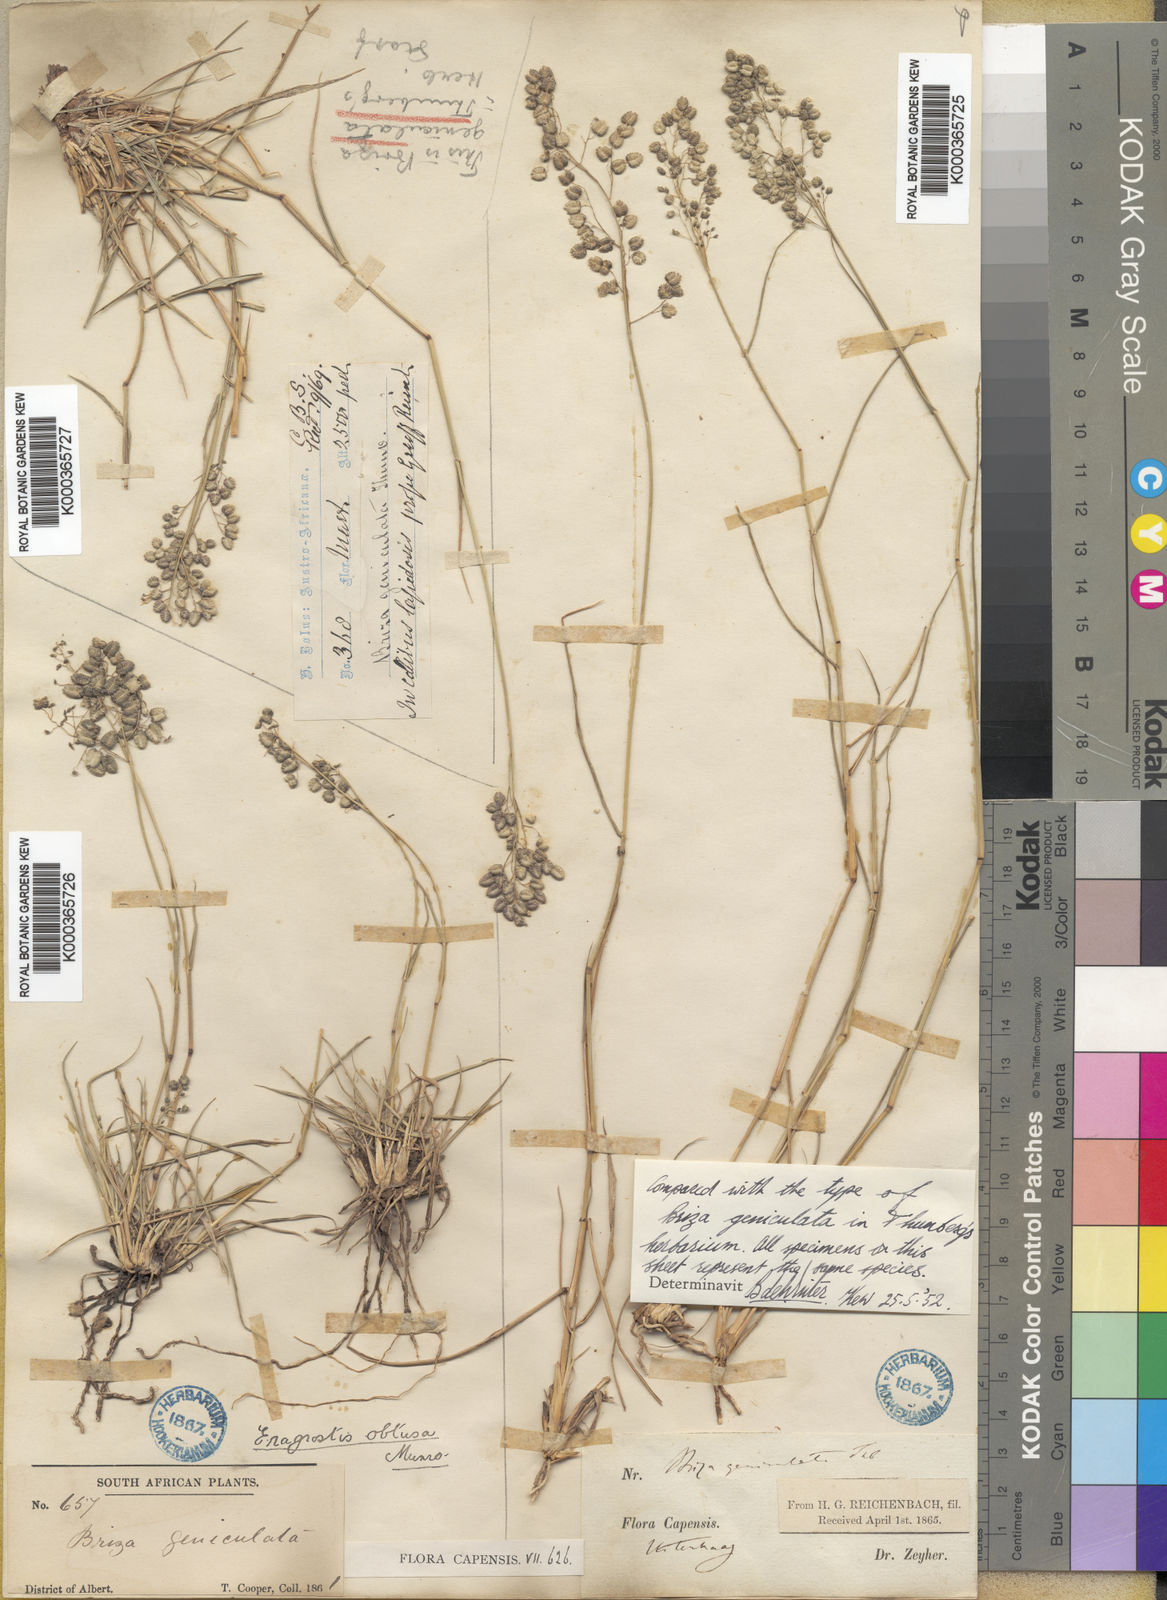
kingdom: Plantae
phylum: Tracheophyta
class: Liliopsida
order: Poales
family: Poaceae
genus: Eragrostis
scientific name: Eragrostis obtusa
